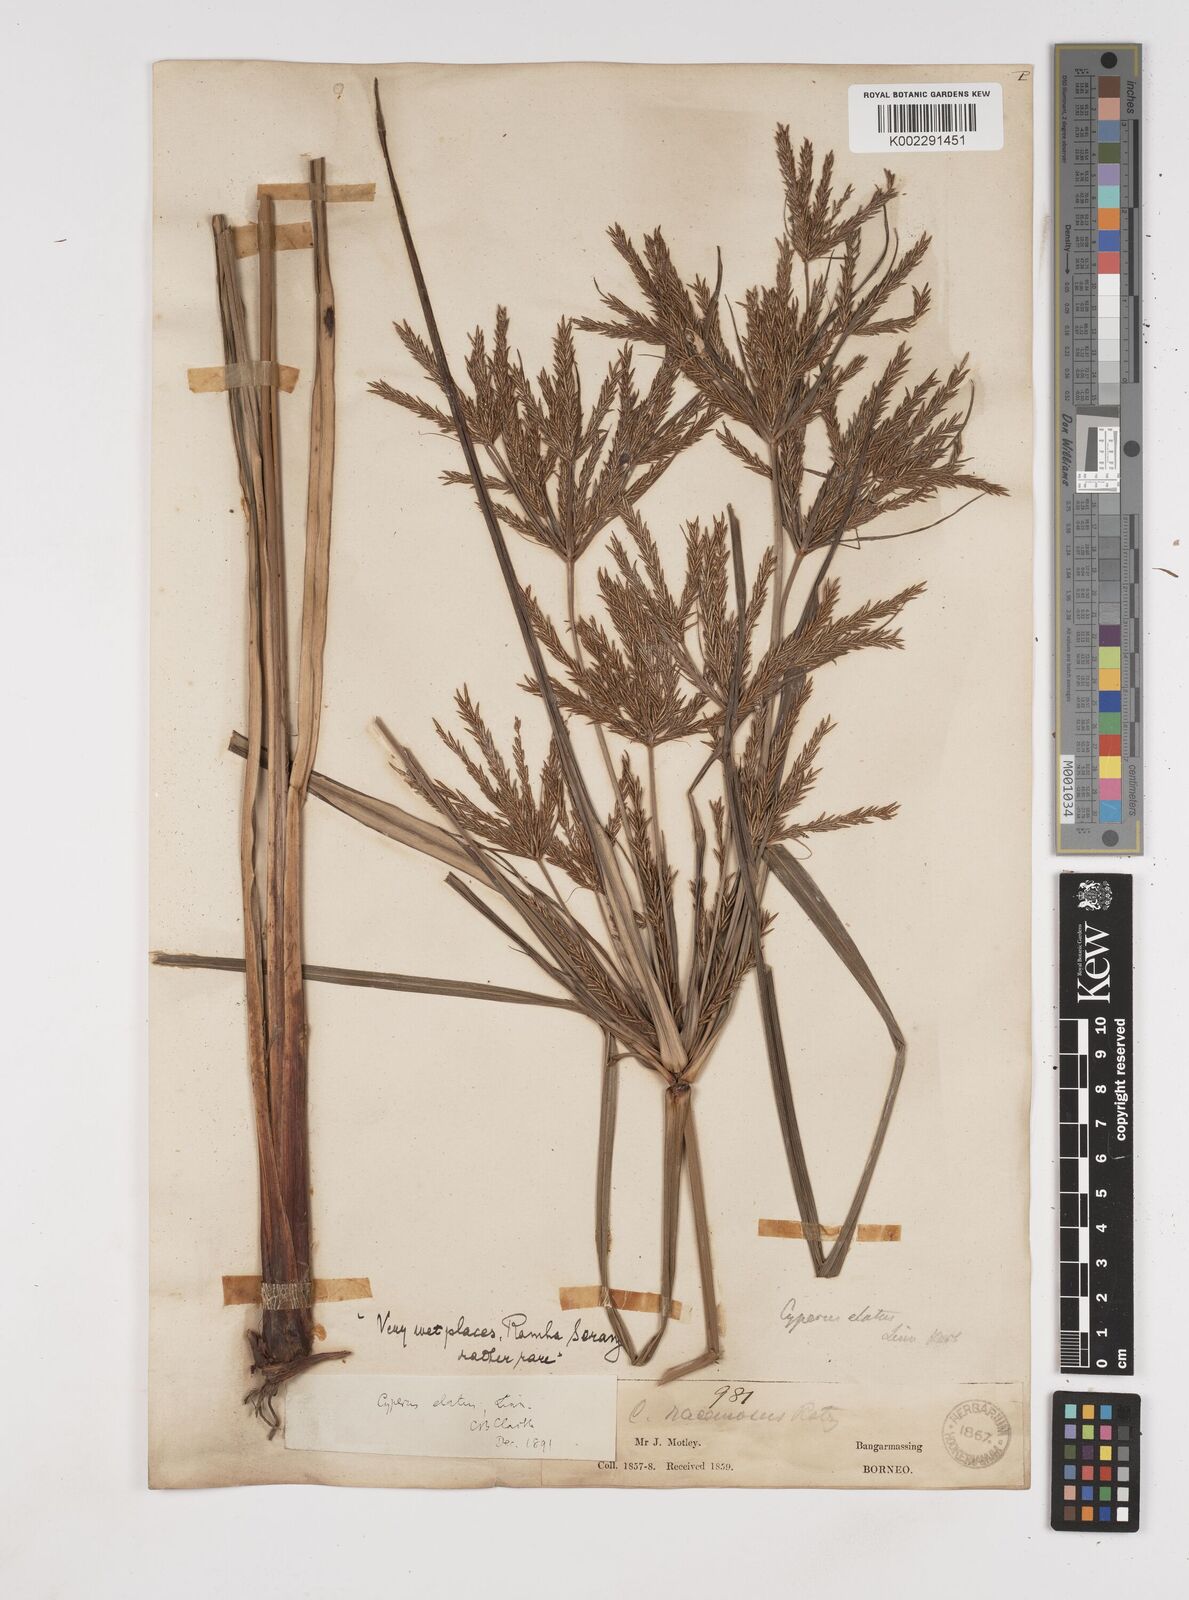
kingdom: Plantae
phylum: Tracheophyta
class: Liliopsida
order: Poales
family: Cyperaceae
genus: Cyperus
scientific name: Cyperus elatus
